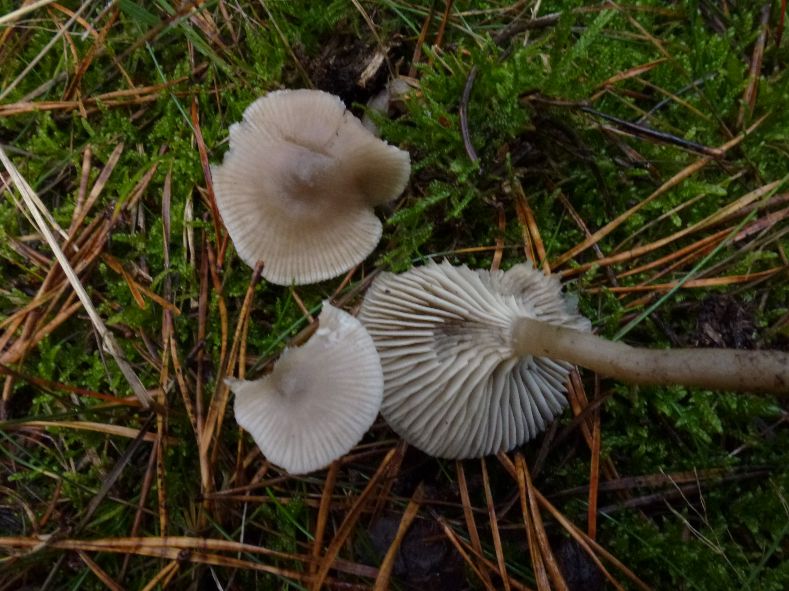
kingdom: Fungi
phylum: Basidiomycota
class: Agaricomycetes
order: Agaricales
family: Tricholomataceae
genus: Clitocybe
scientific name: Clitocybe vibecina
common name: randstribet tragthat
